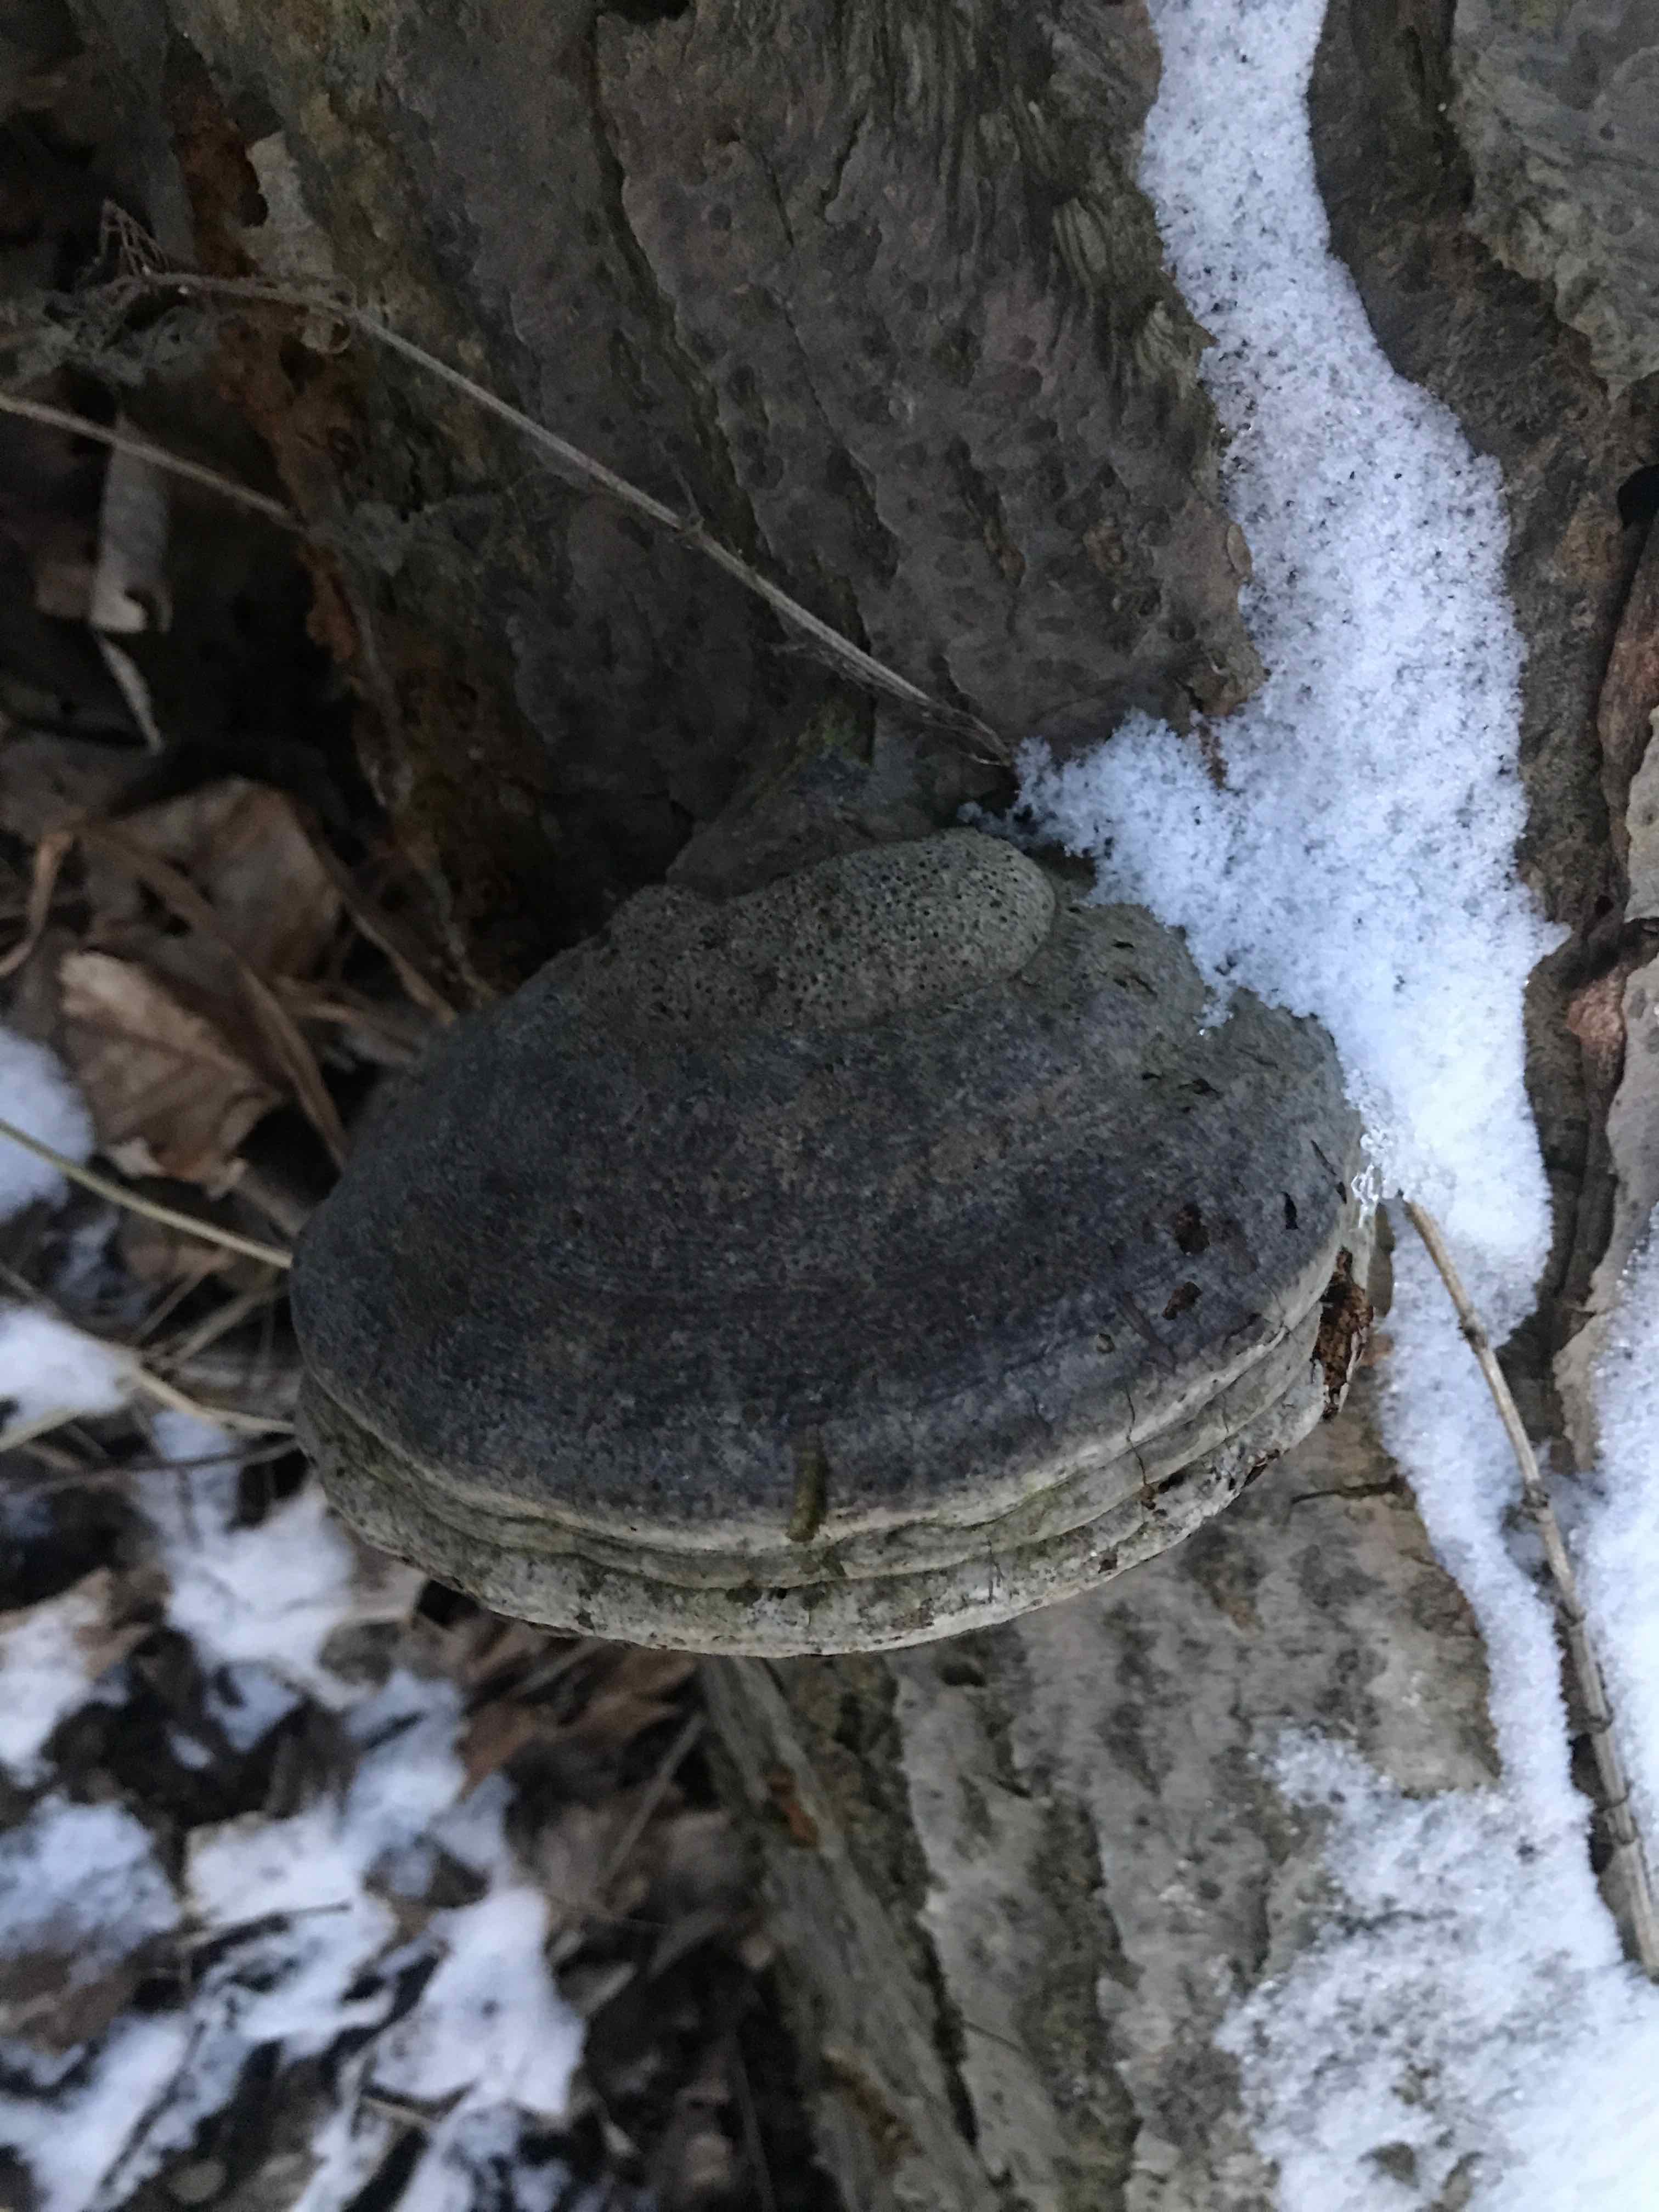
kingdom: Fungi
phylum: Basidiomycota
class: Agaricomycetes
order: Polyporales
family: Polyporaceae
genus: Fomes
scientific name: Fomes fomentarius
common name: tøndersvamp
